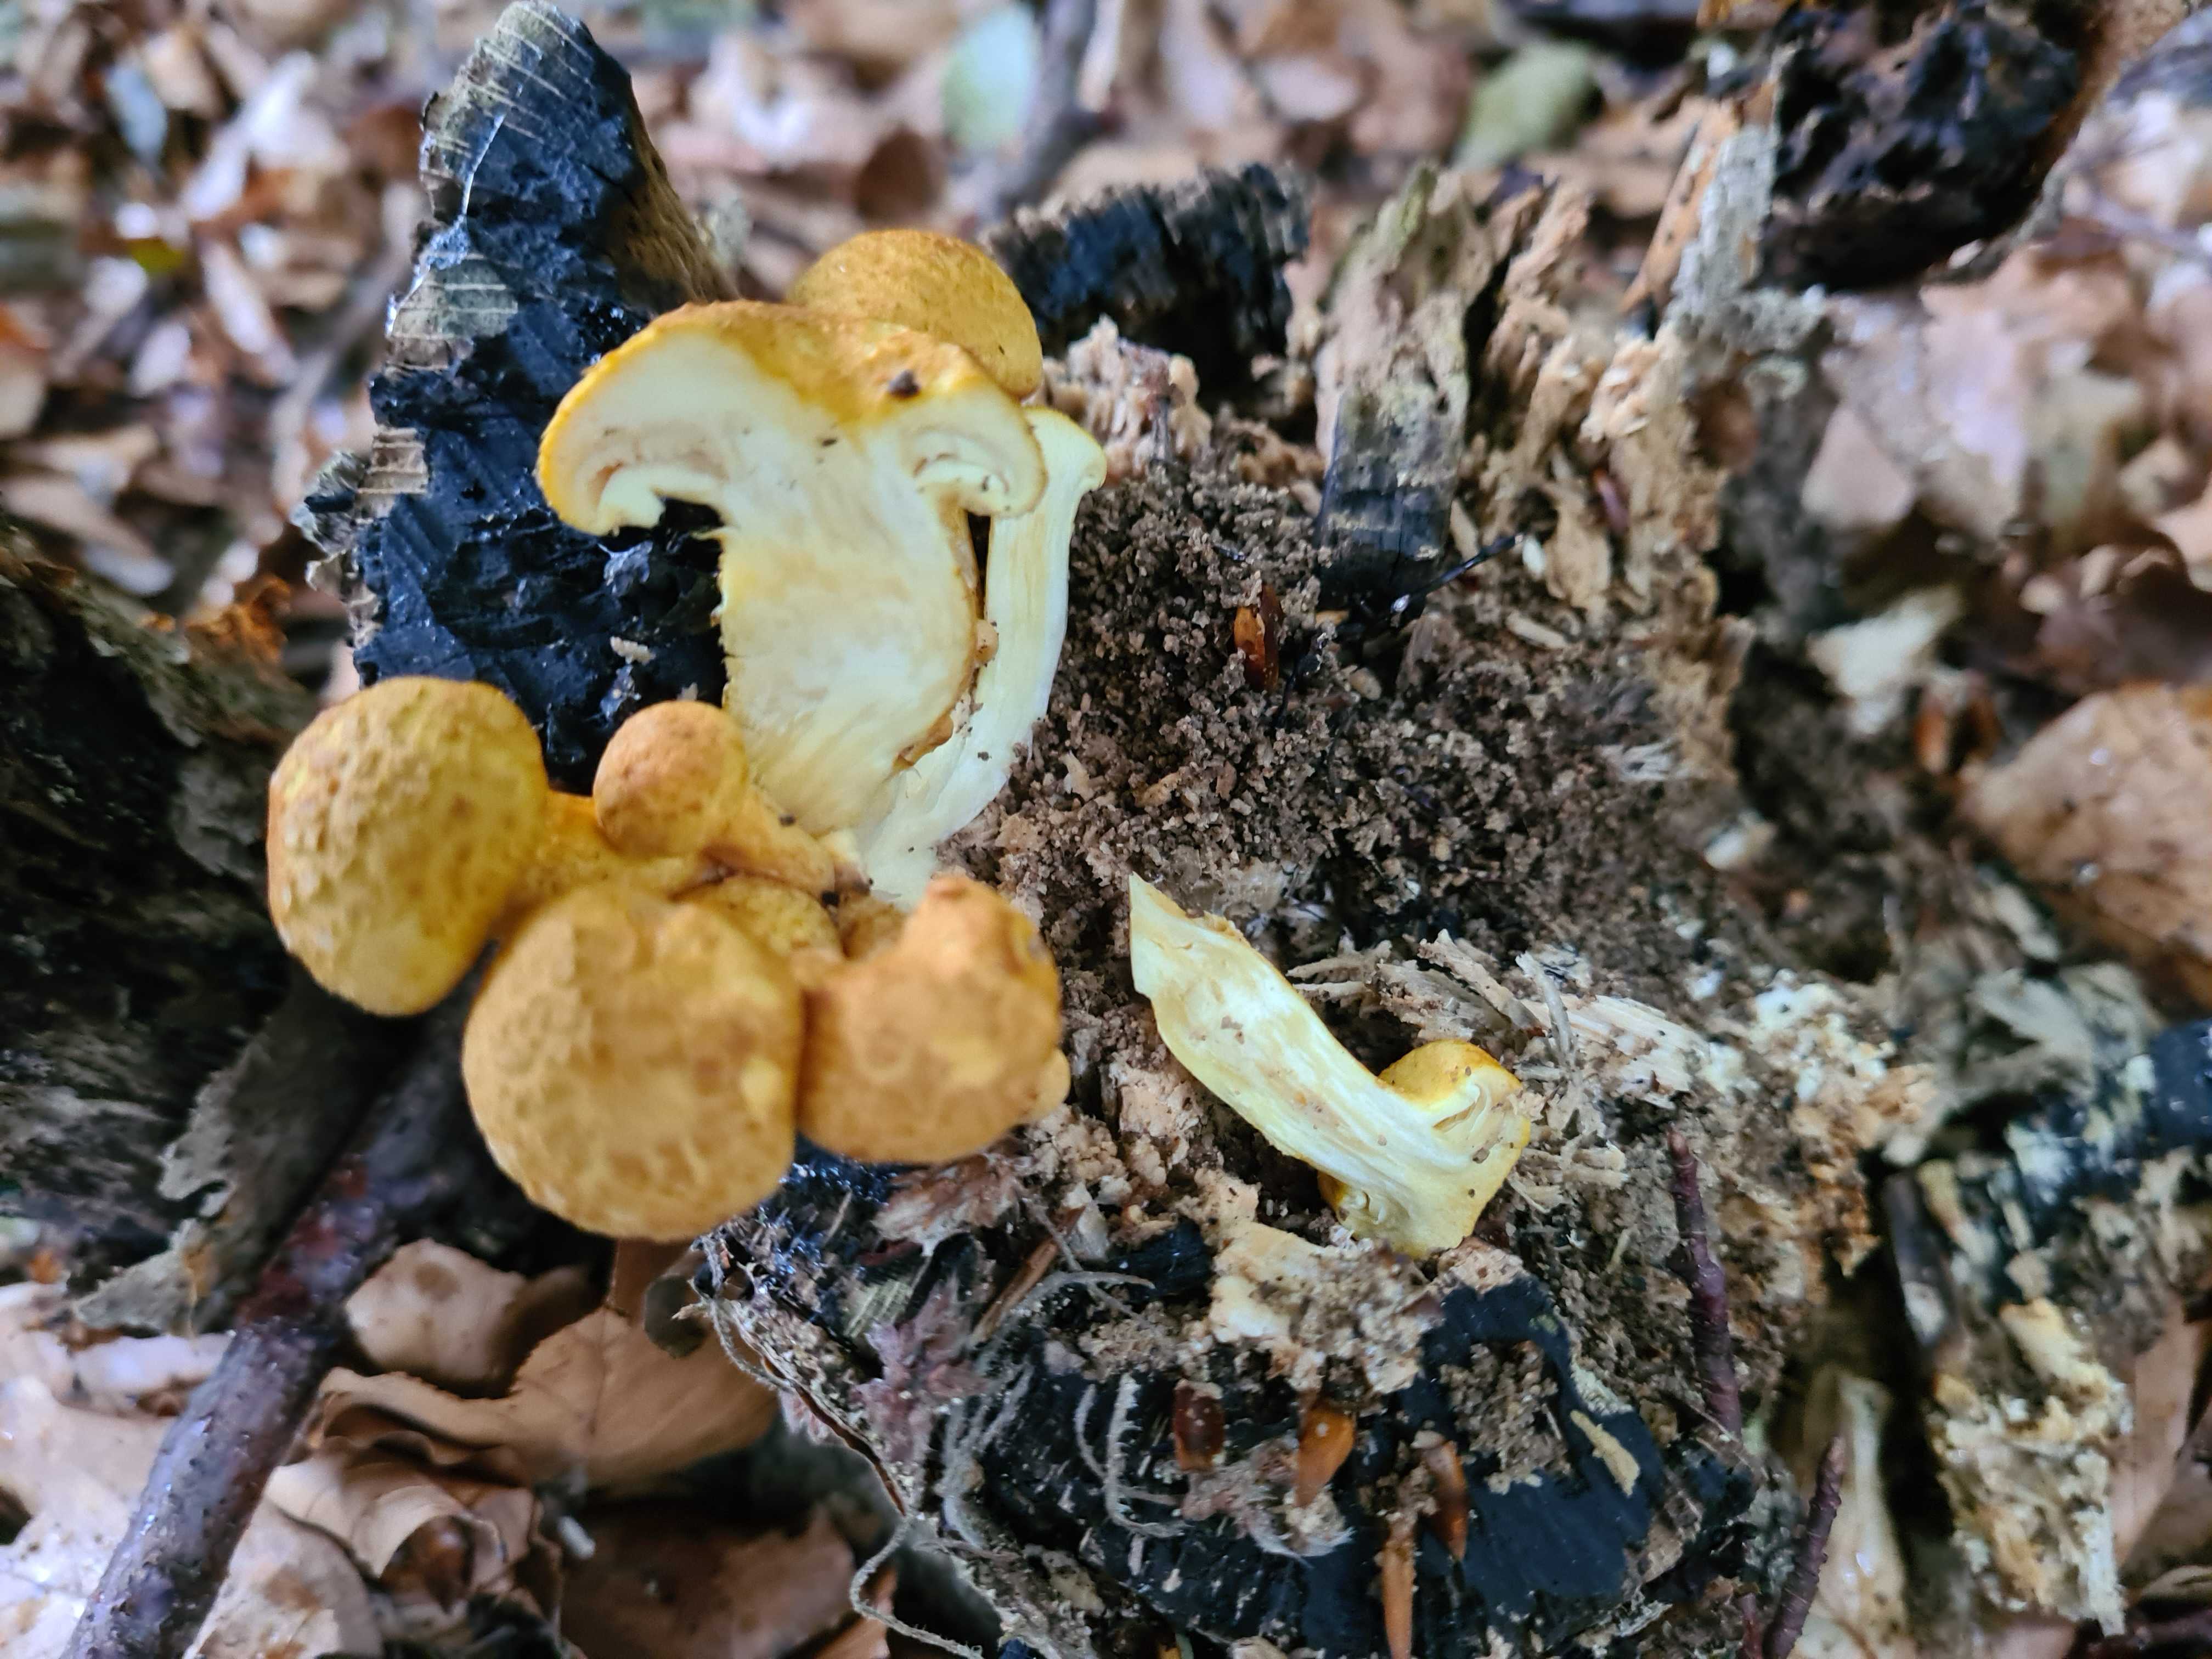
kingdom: Fungi
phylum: Basidiomycota
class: Agaricomycetes
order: Agaricales
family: Hymenogastraceae
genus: Gymnopilus
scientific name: Gymnopilus spectabilis
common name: fibret flammehat
